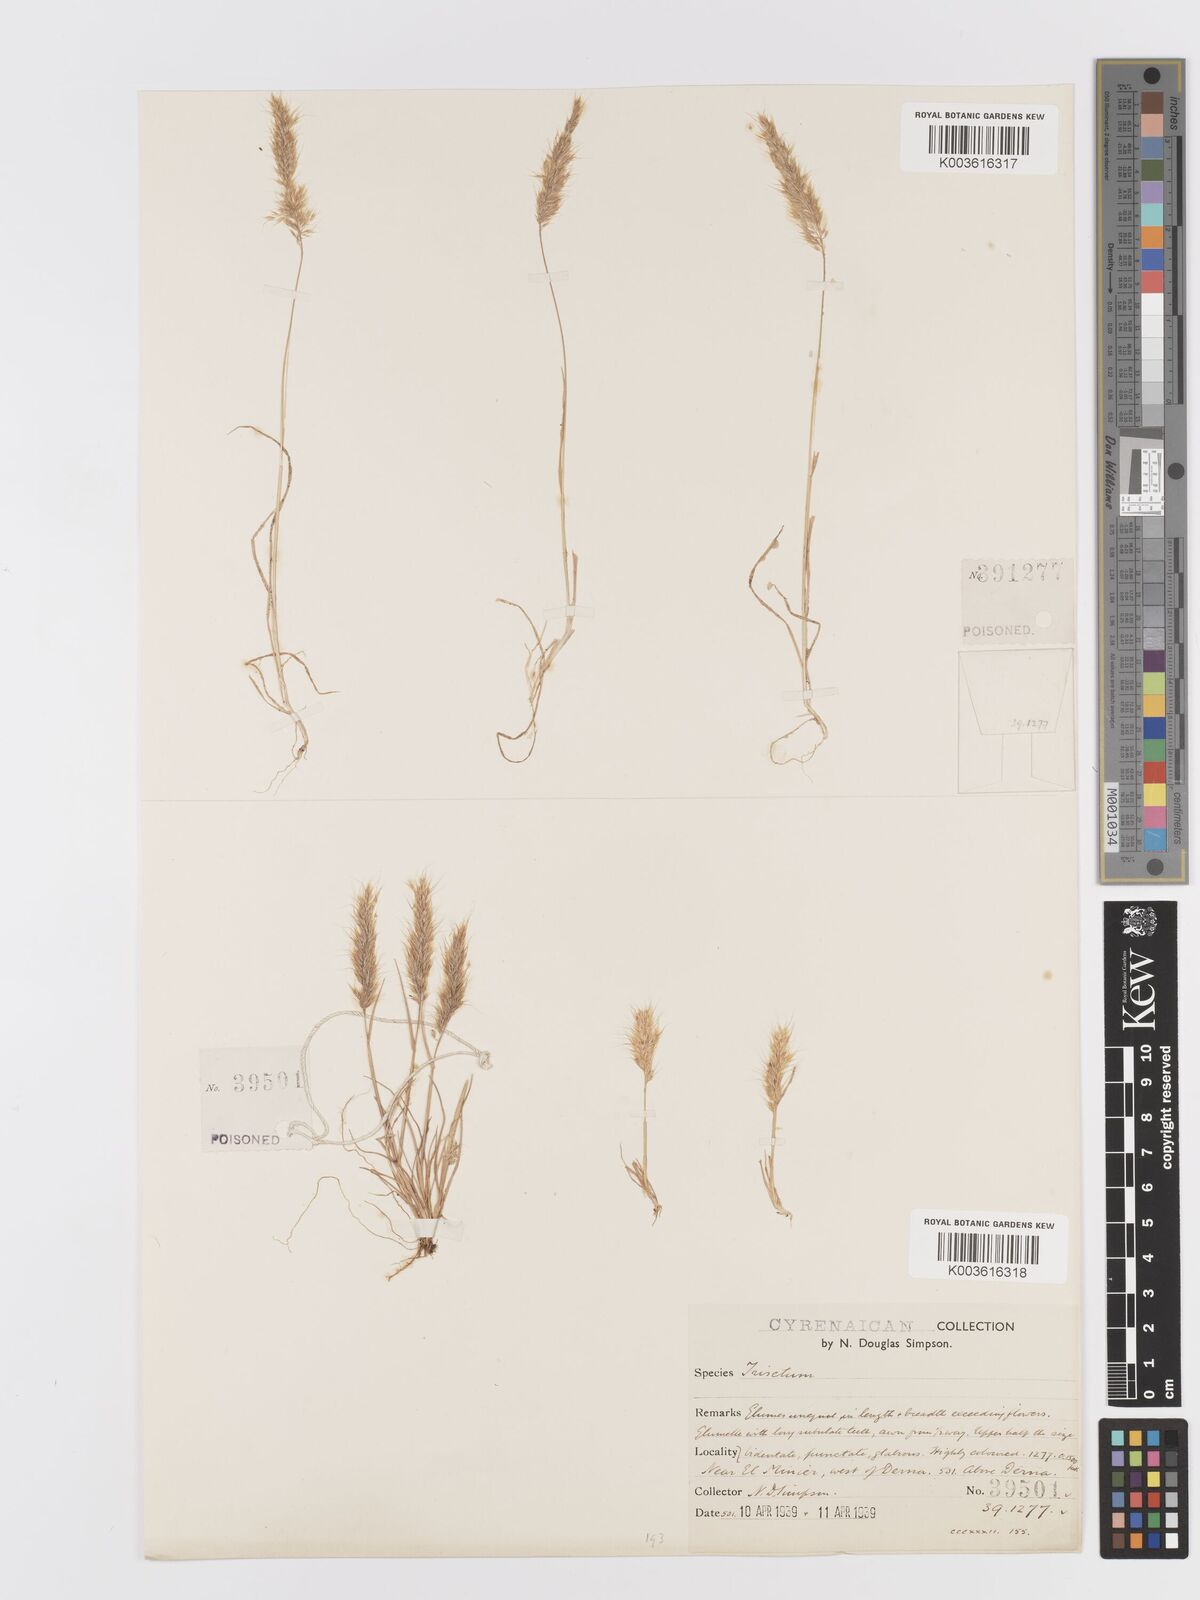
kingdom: Plantae
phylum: Tracheophyta
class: Liliopsida
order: Poales
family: Poaceae
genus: Trisetaria
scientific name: Trisetaria
